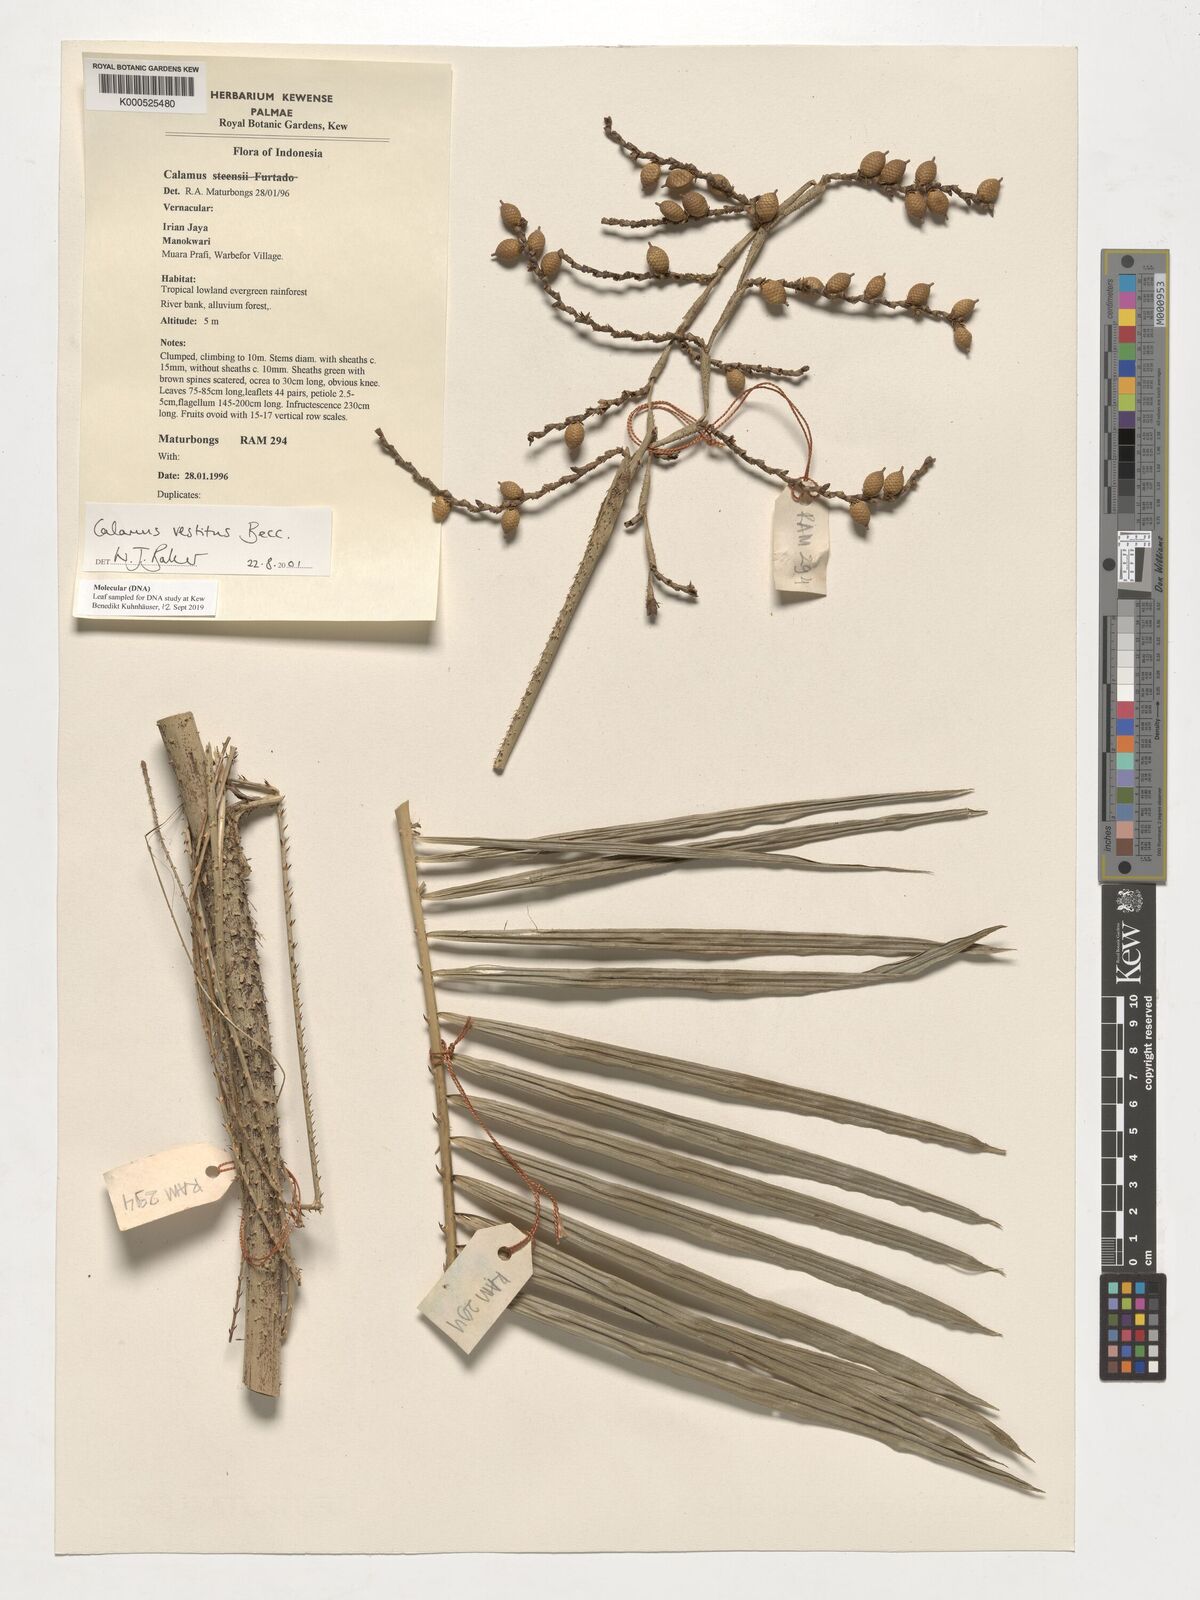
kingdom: Plantae
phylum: Tracheophyta
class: Liliopsida
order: Arecales
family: Arecaceae
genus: Calamus
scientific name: Calamus vestitus
